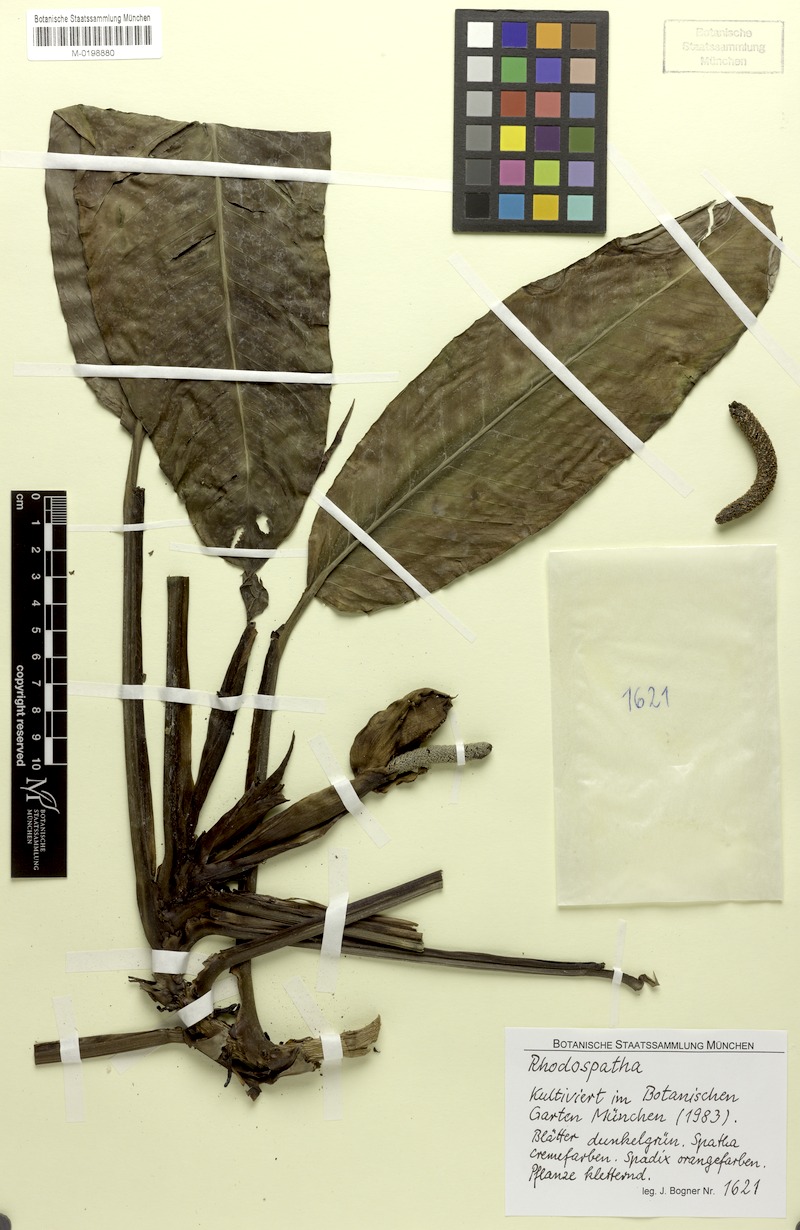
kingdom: Plantae
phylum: Tracheophyta
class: Liliopsida
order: Alismatales
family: Araceae
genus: Rhodospatha
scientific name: Rhodospatha
